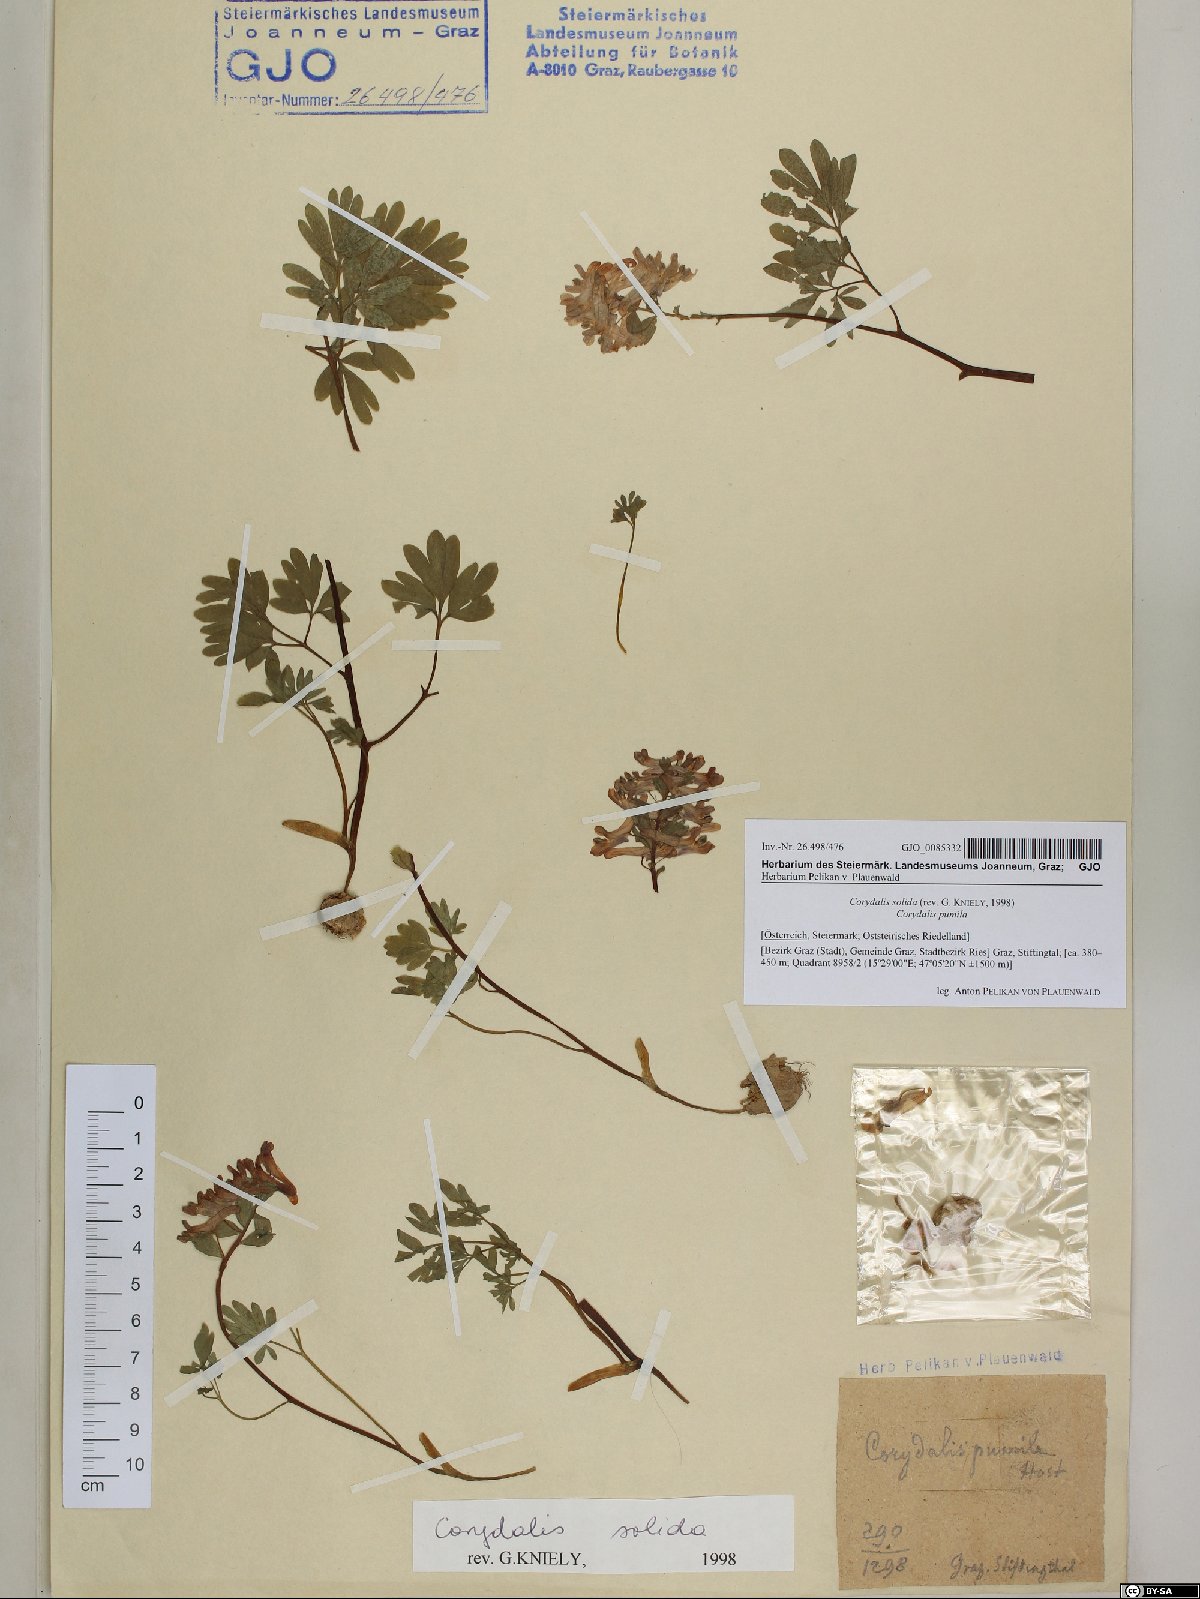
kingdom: Plantae
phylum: Tracheophyta
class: Magnoliopsida
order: Ranunculales
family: Papaveraceae
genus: Corydalis
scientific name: Corydalis solida
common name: Bird-in-a-bush
